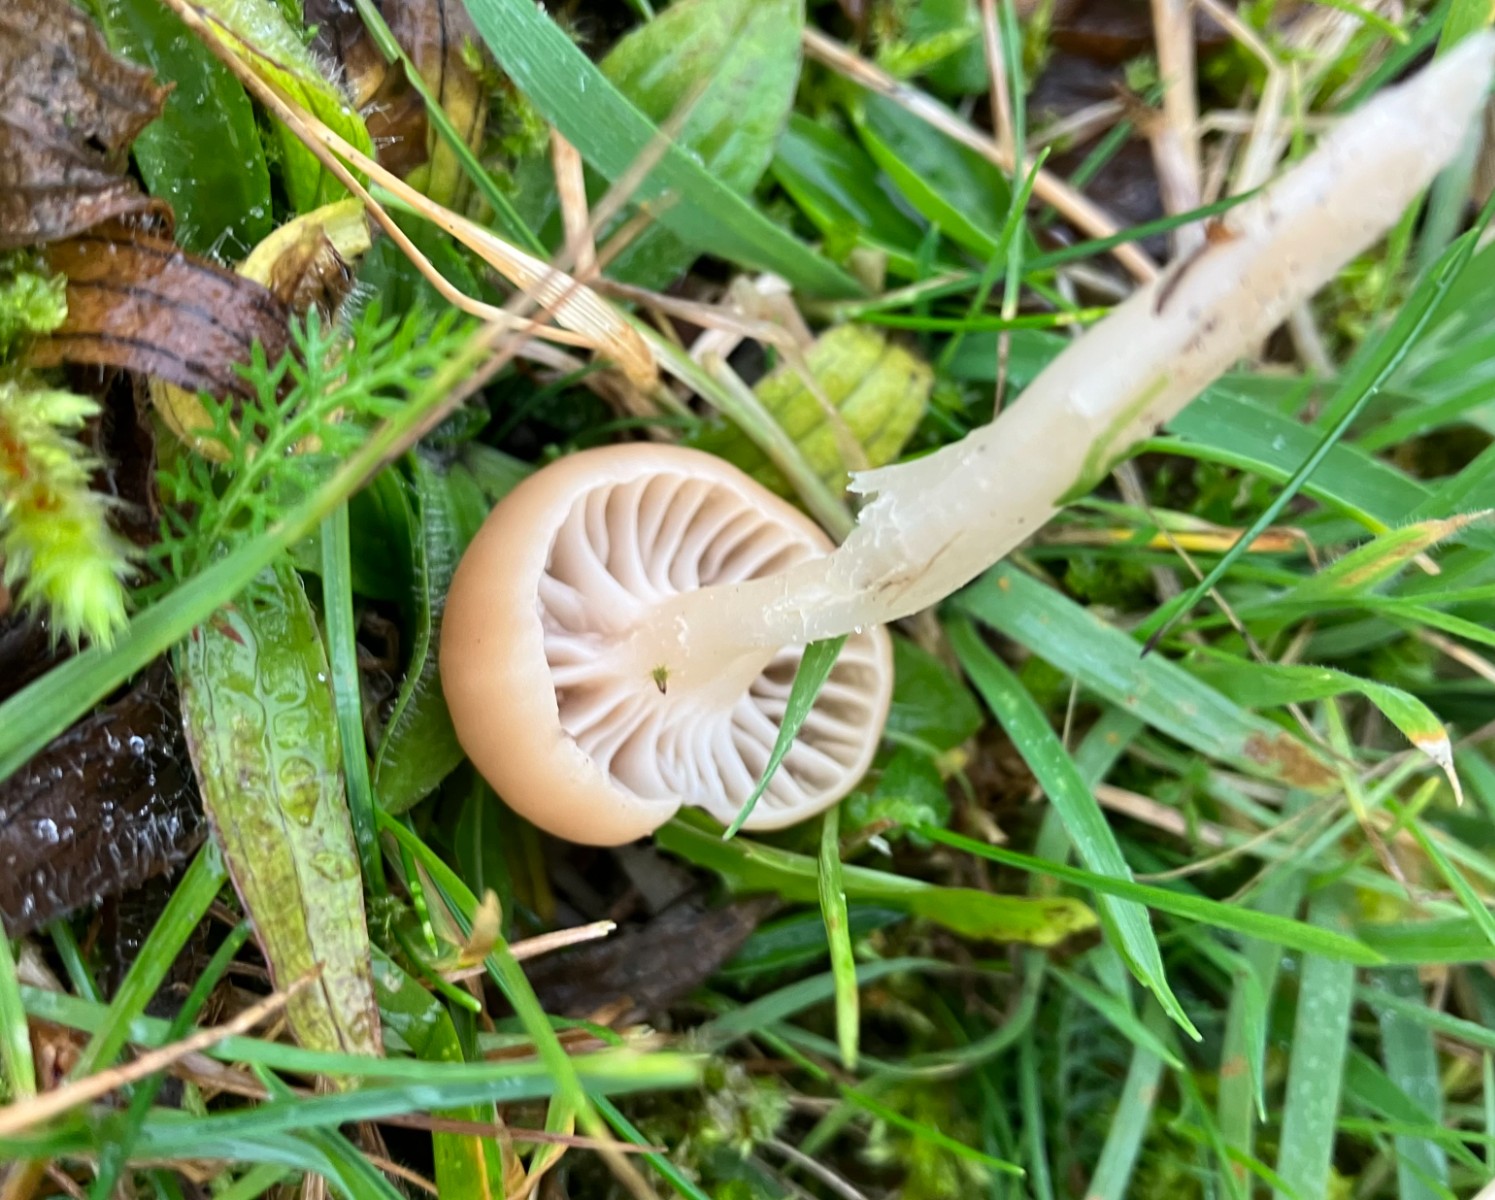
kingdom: Fungi
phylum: Basidiomycota
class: Agaricomycetes
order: Agaricales
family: Hygrophoraceae
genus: Cuphophyllus
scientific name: Cuphophyllus colemannianus
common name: rødbrun vokshat
